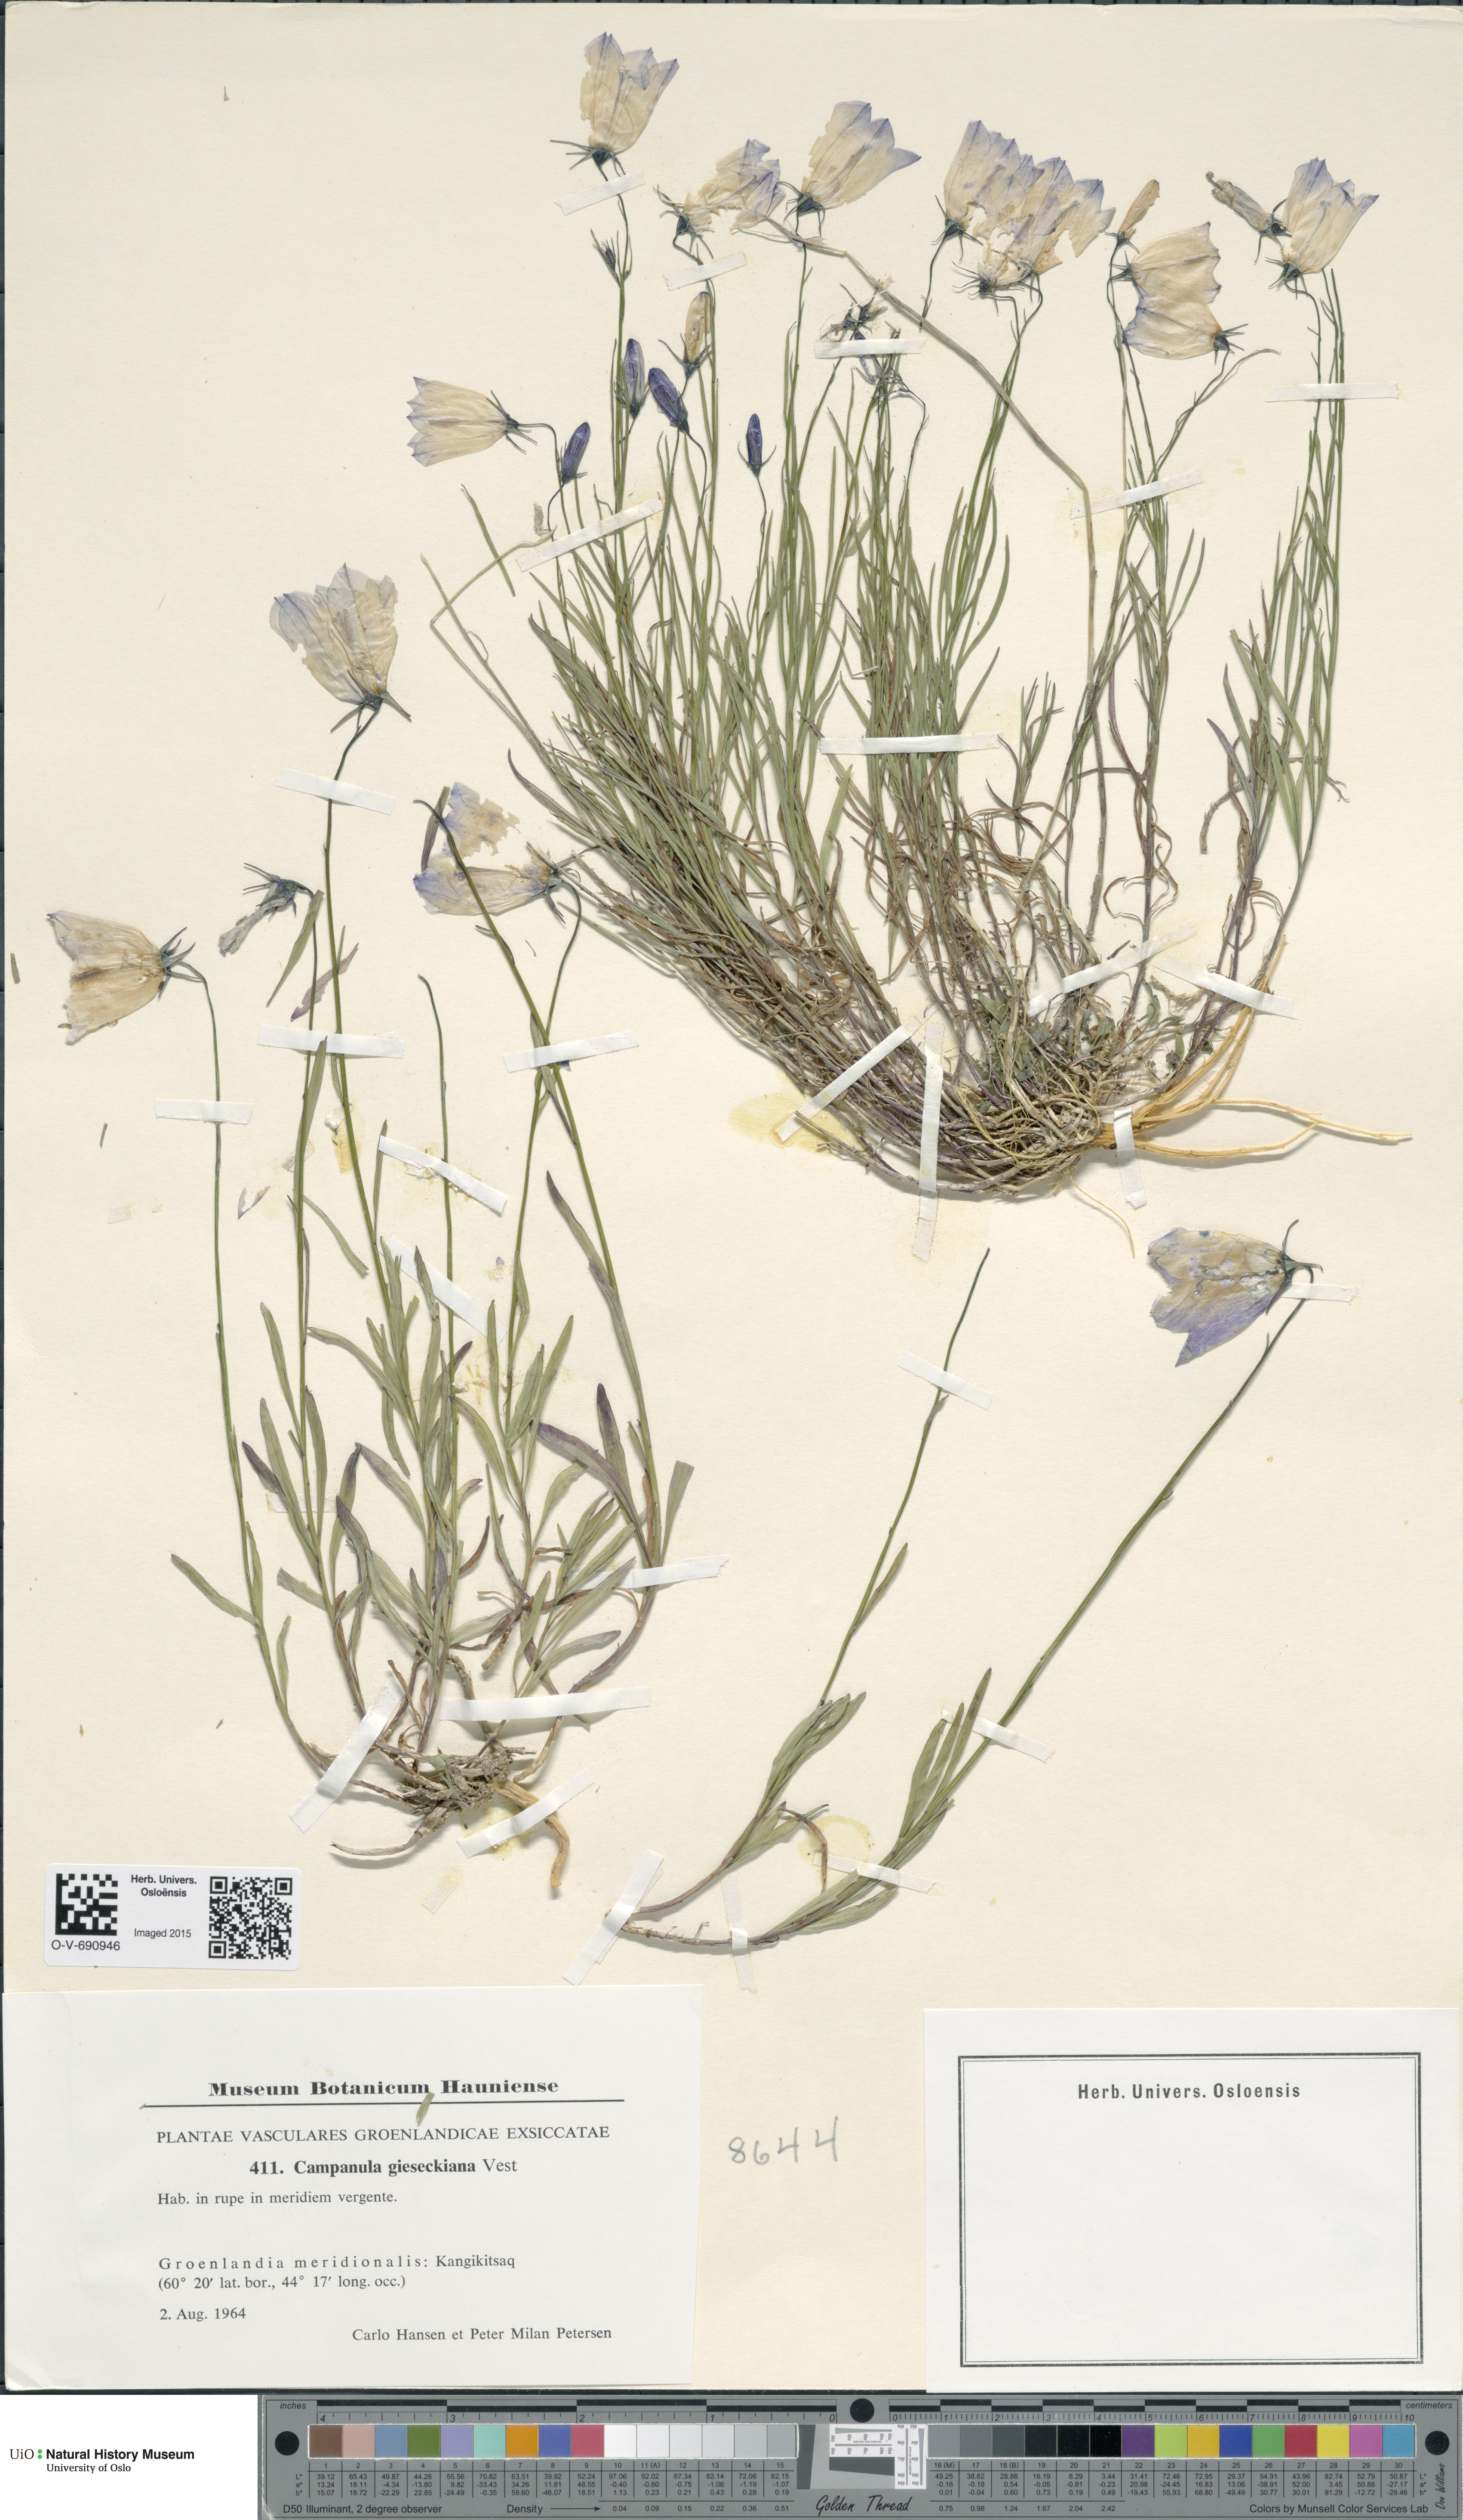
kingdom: Plantae
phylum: Tracheophyta
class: Magnoliopsida
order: Asterales
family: Campanulaceae
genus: Campanula
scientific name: Campanula rotundifolia
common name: Harebell
